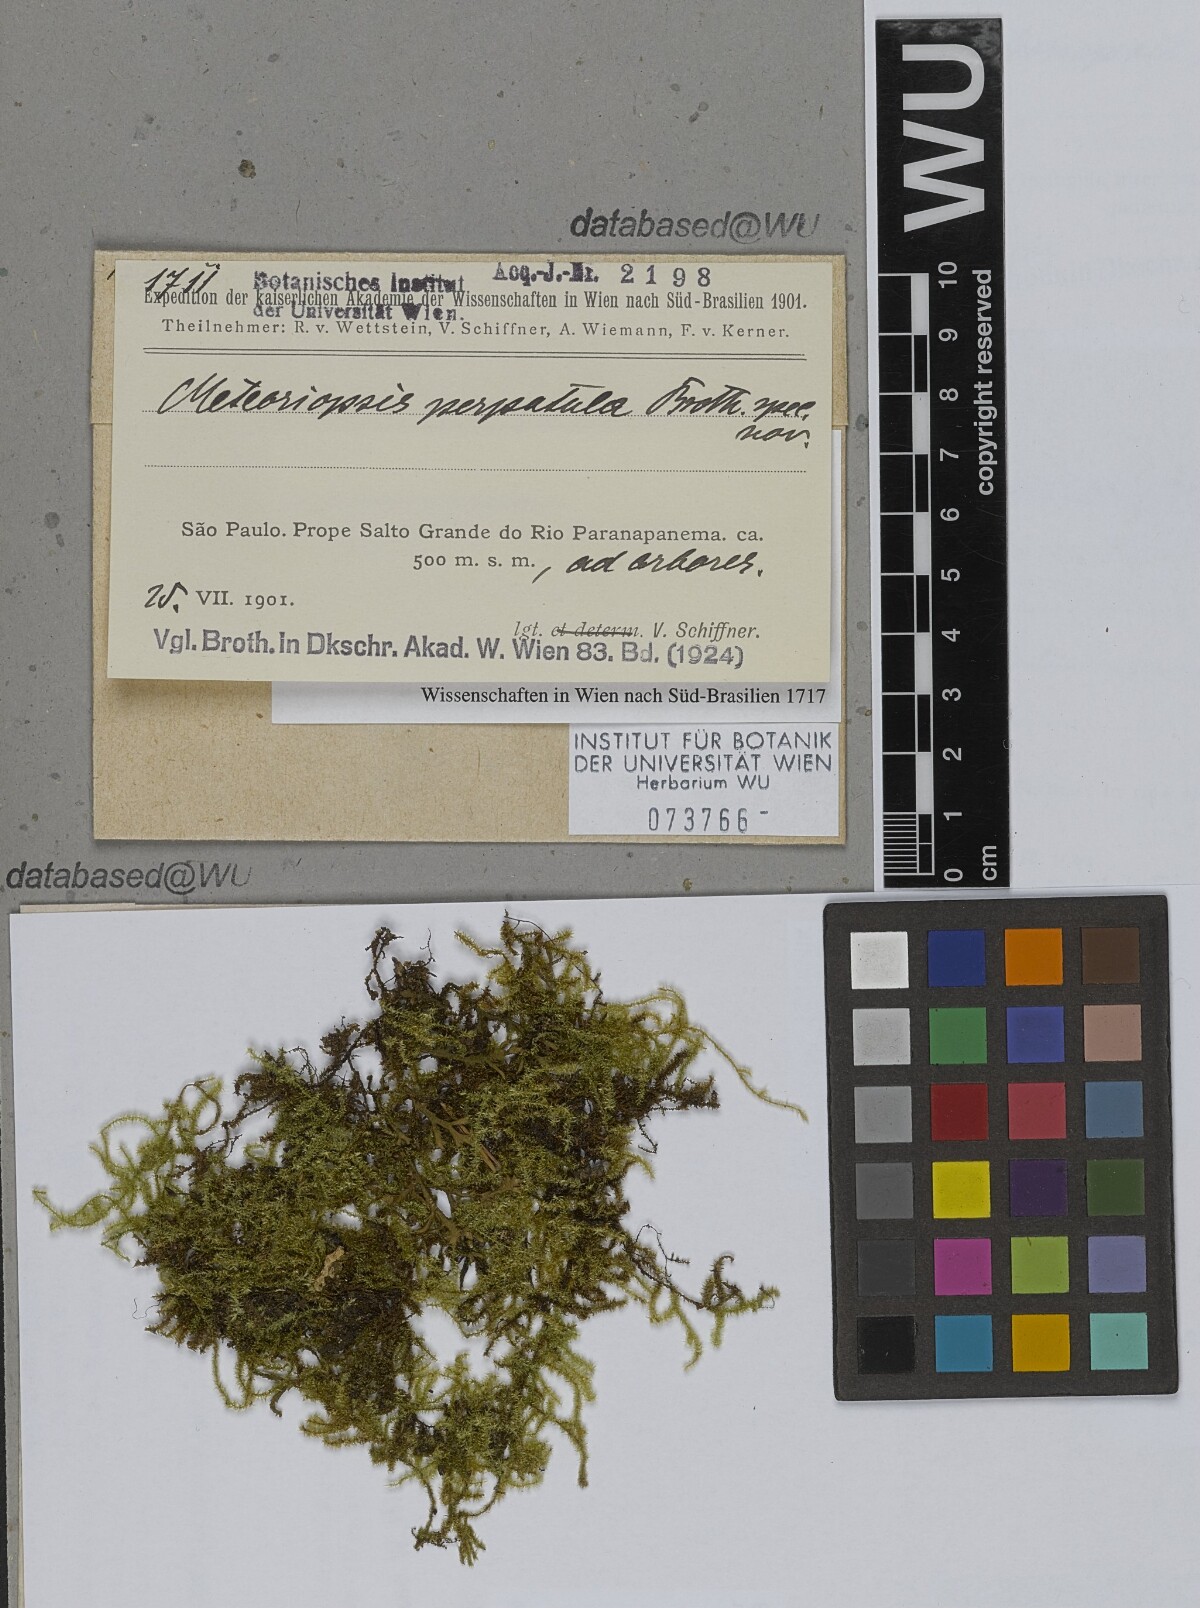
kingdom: Plantae
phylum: Bryophyta
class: Bryopsida
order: Hypnales
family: Brachytheciaceae
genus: Zelometeorium
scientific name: Zelometeorium patulum
